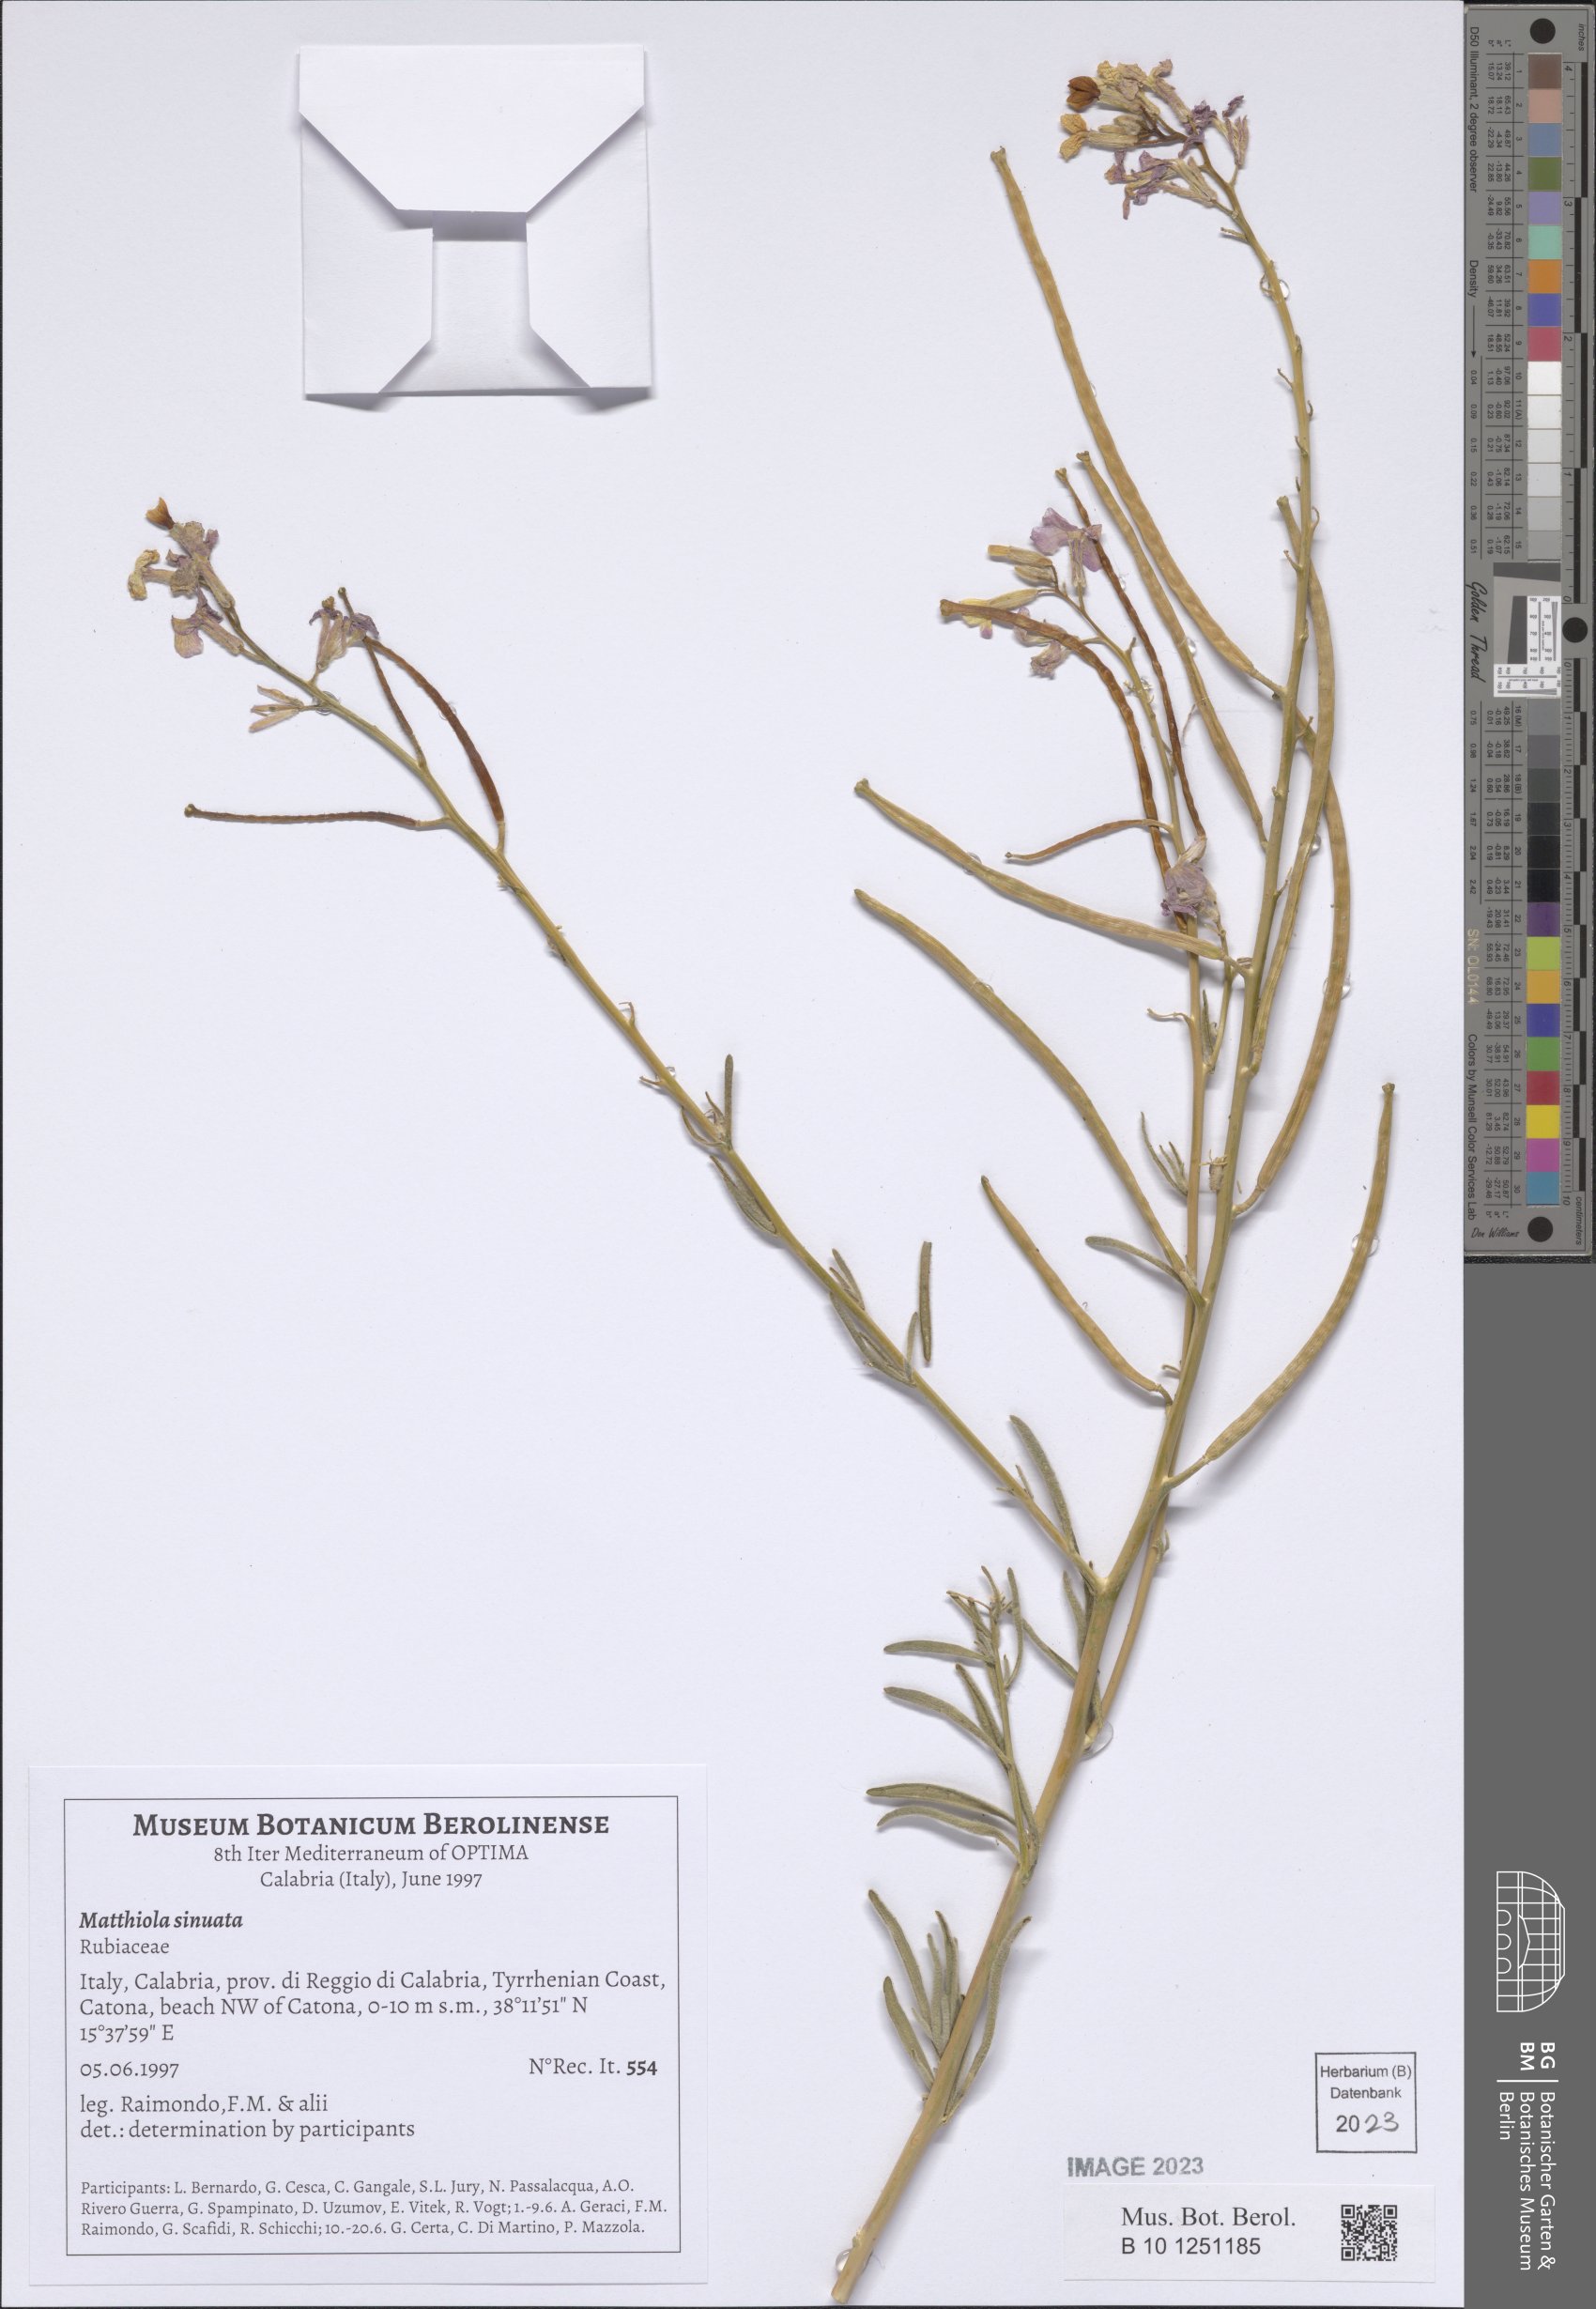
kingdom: Plantae
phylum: Tracheophyta
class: Magnoliopsida
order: Brassicales
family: Brassicaceae
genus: Matthiola
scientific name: Matthiola sinuata
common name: Sea stock
